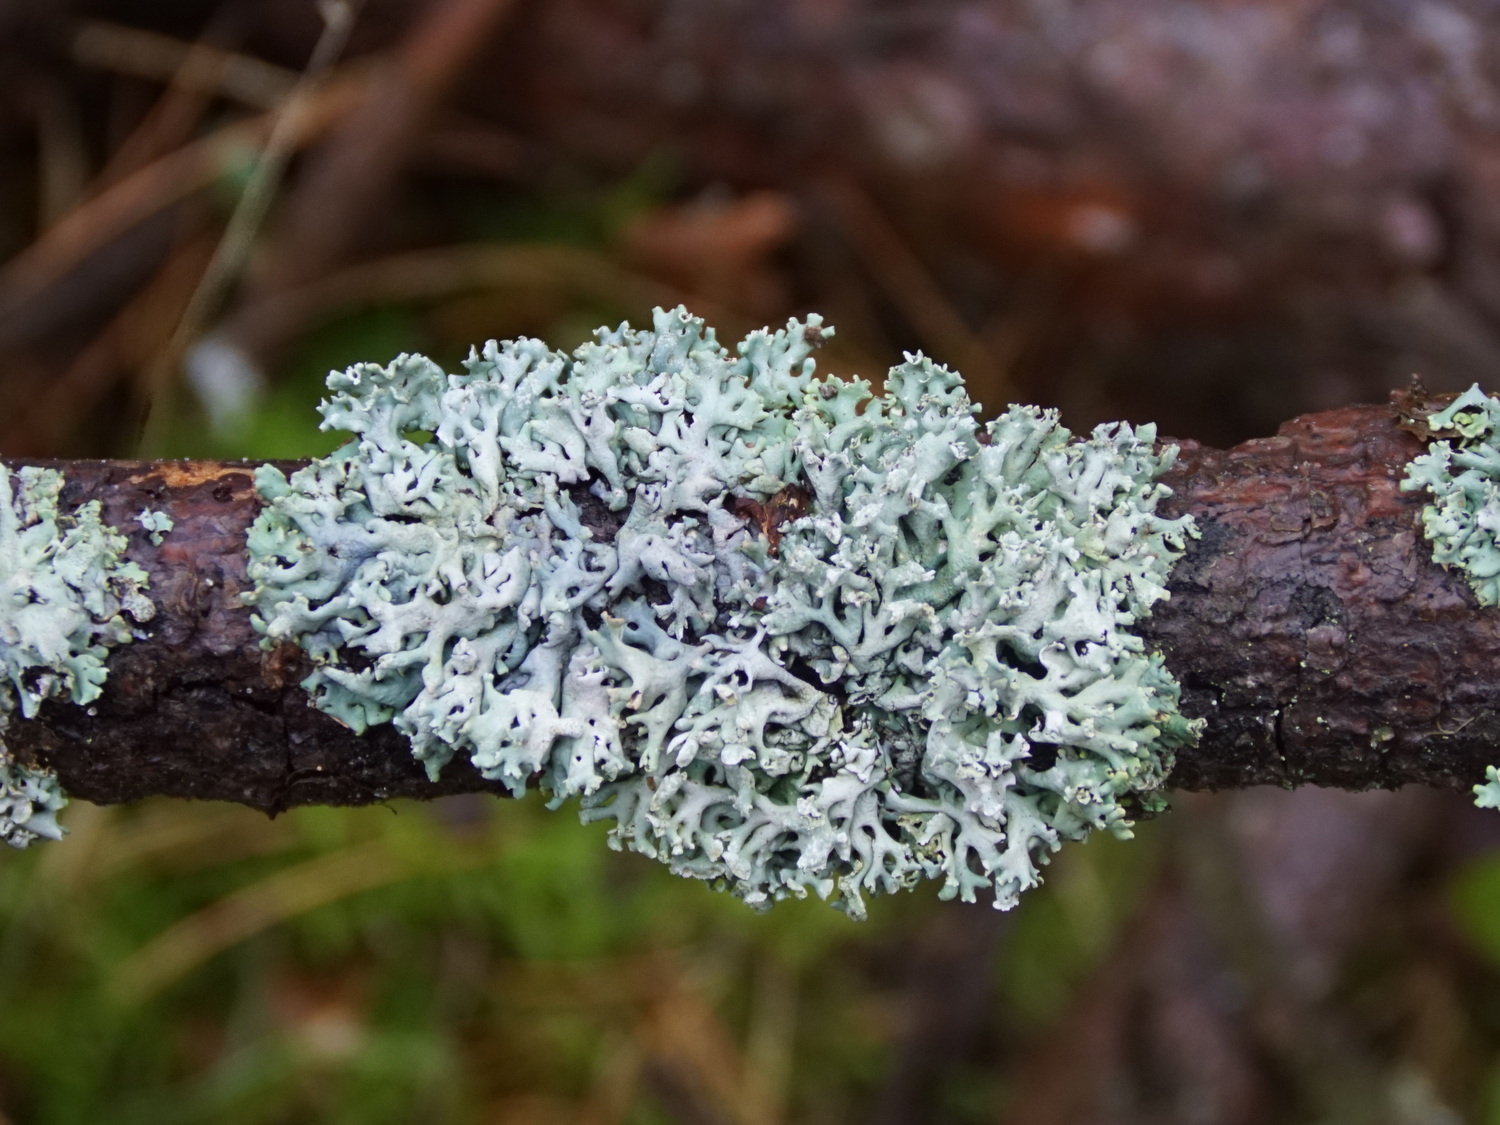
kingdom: Fungi
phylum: Ascomycota
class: Lecanoromycetes
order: Lecanorales
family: Parmeliaceae
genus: Hypogymnia
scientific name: Hypogymnia physodes
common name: almindelig kvistlav
